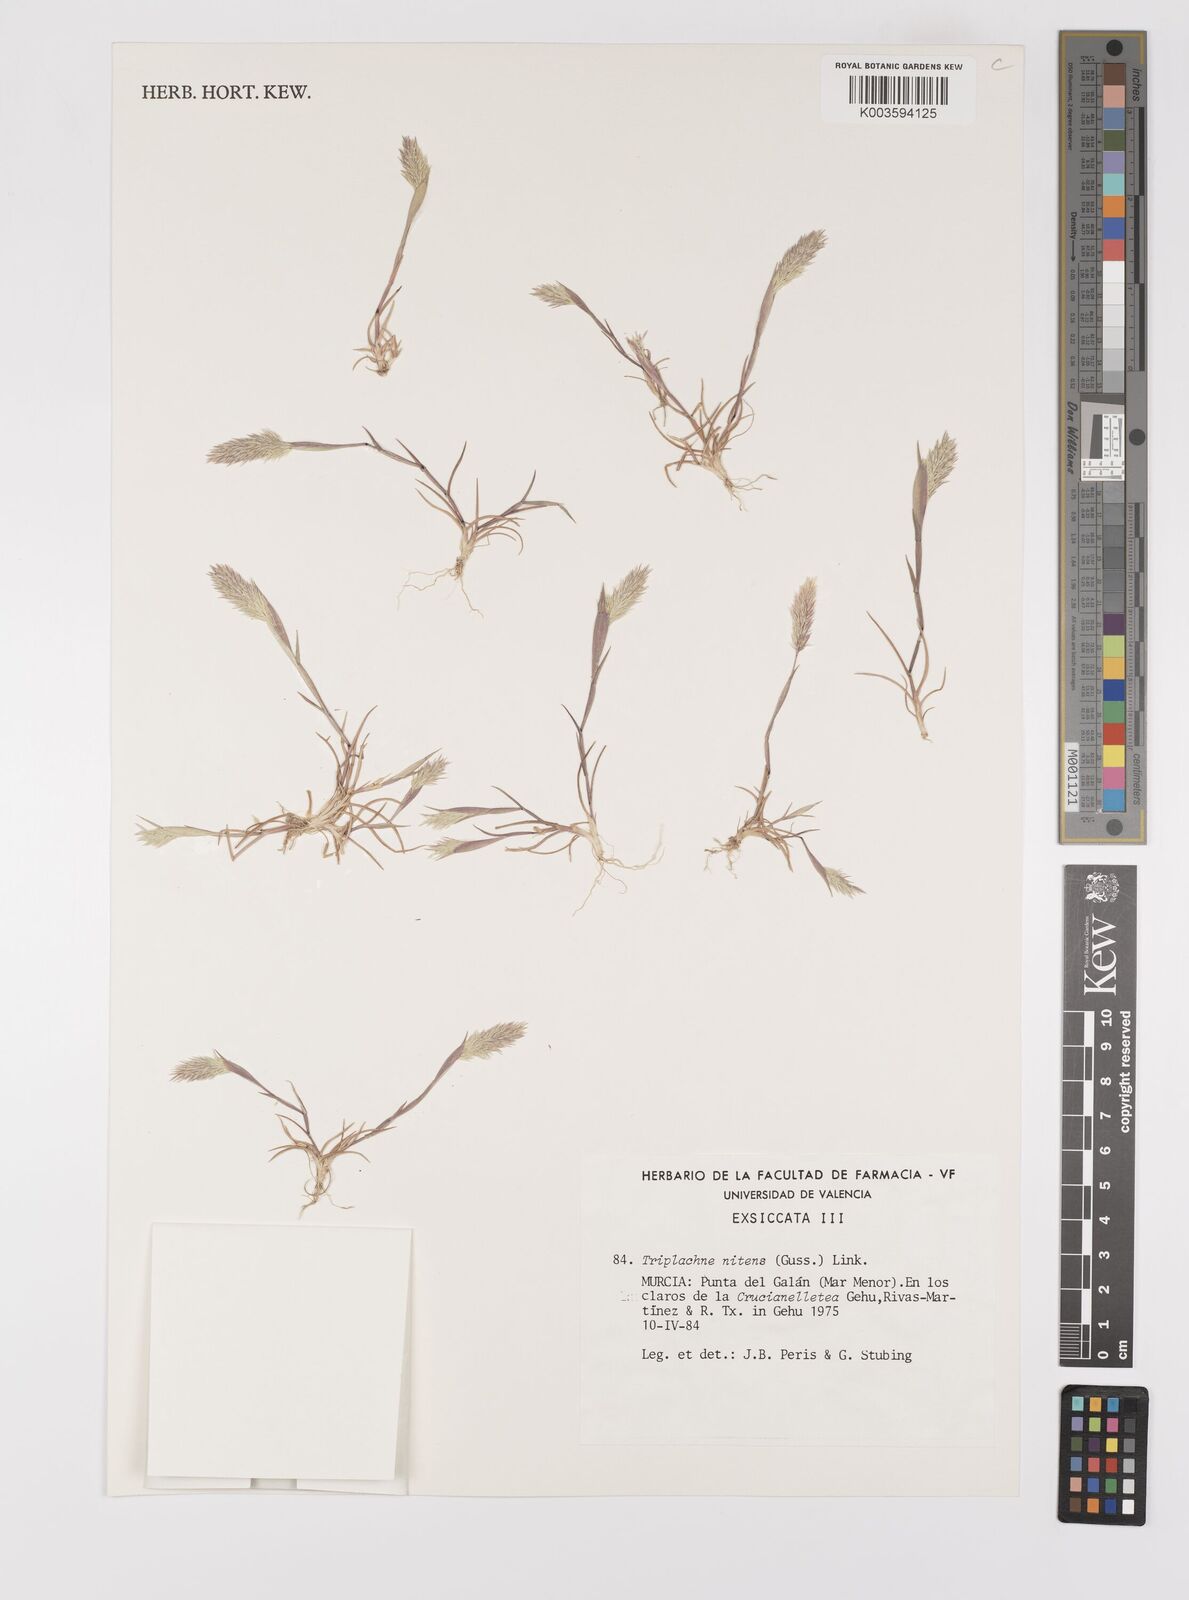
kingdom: Plantae
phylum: Tracheophyta
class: Liliopsida
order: Poales
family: Poaceae
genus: Triplachne
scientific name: Triplachne nitens
